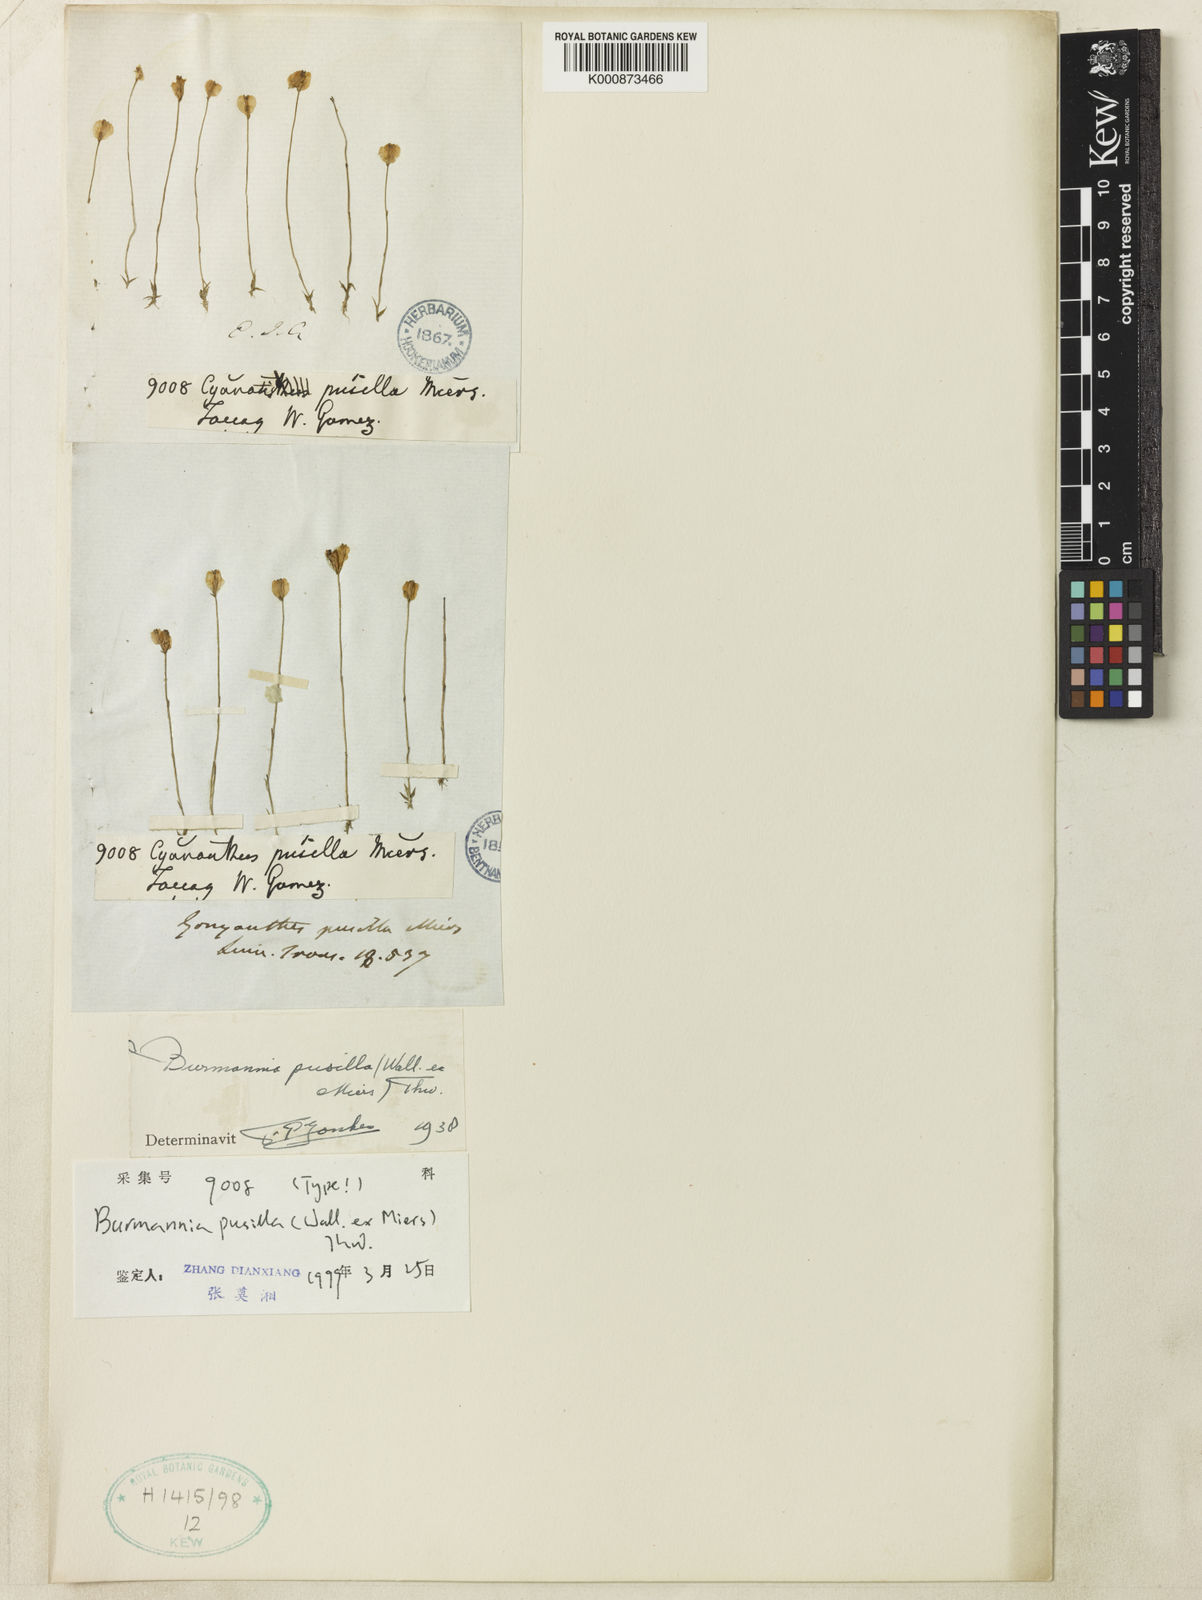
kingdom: Plantae
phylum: Tracheophyta
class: Liliopsida
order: Dioscoreales
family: Burmanniaceae
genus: Burmannia
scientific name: Burmannia pusilla
